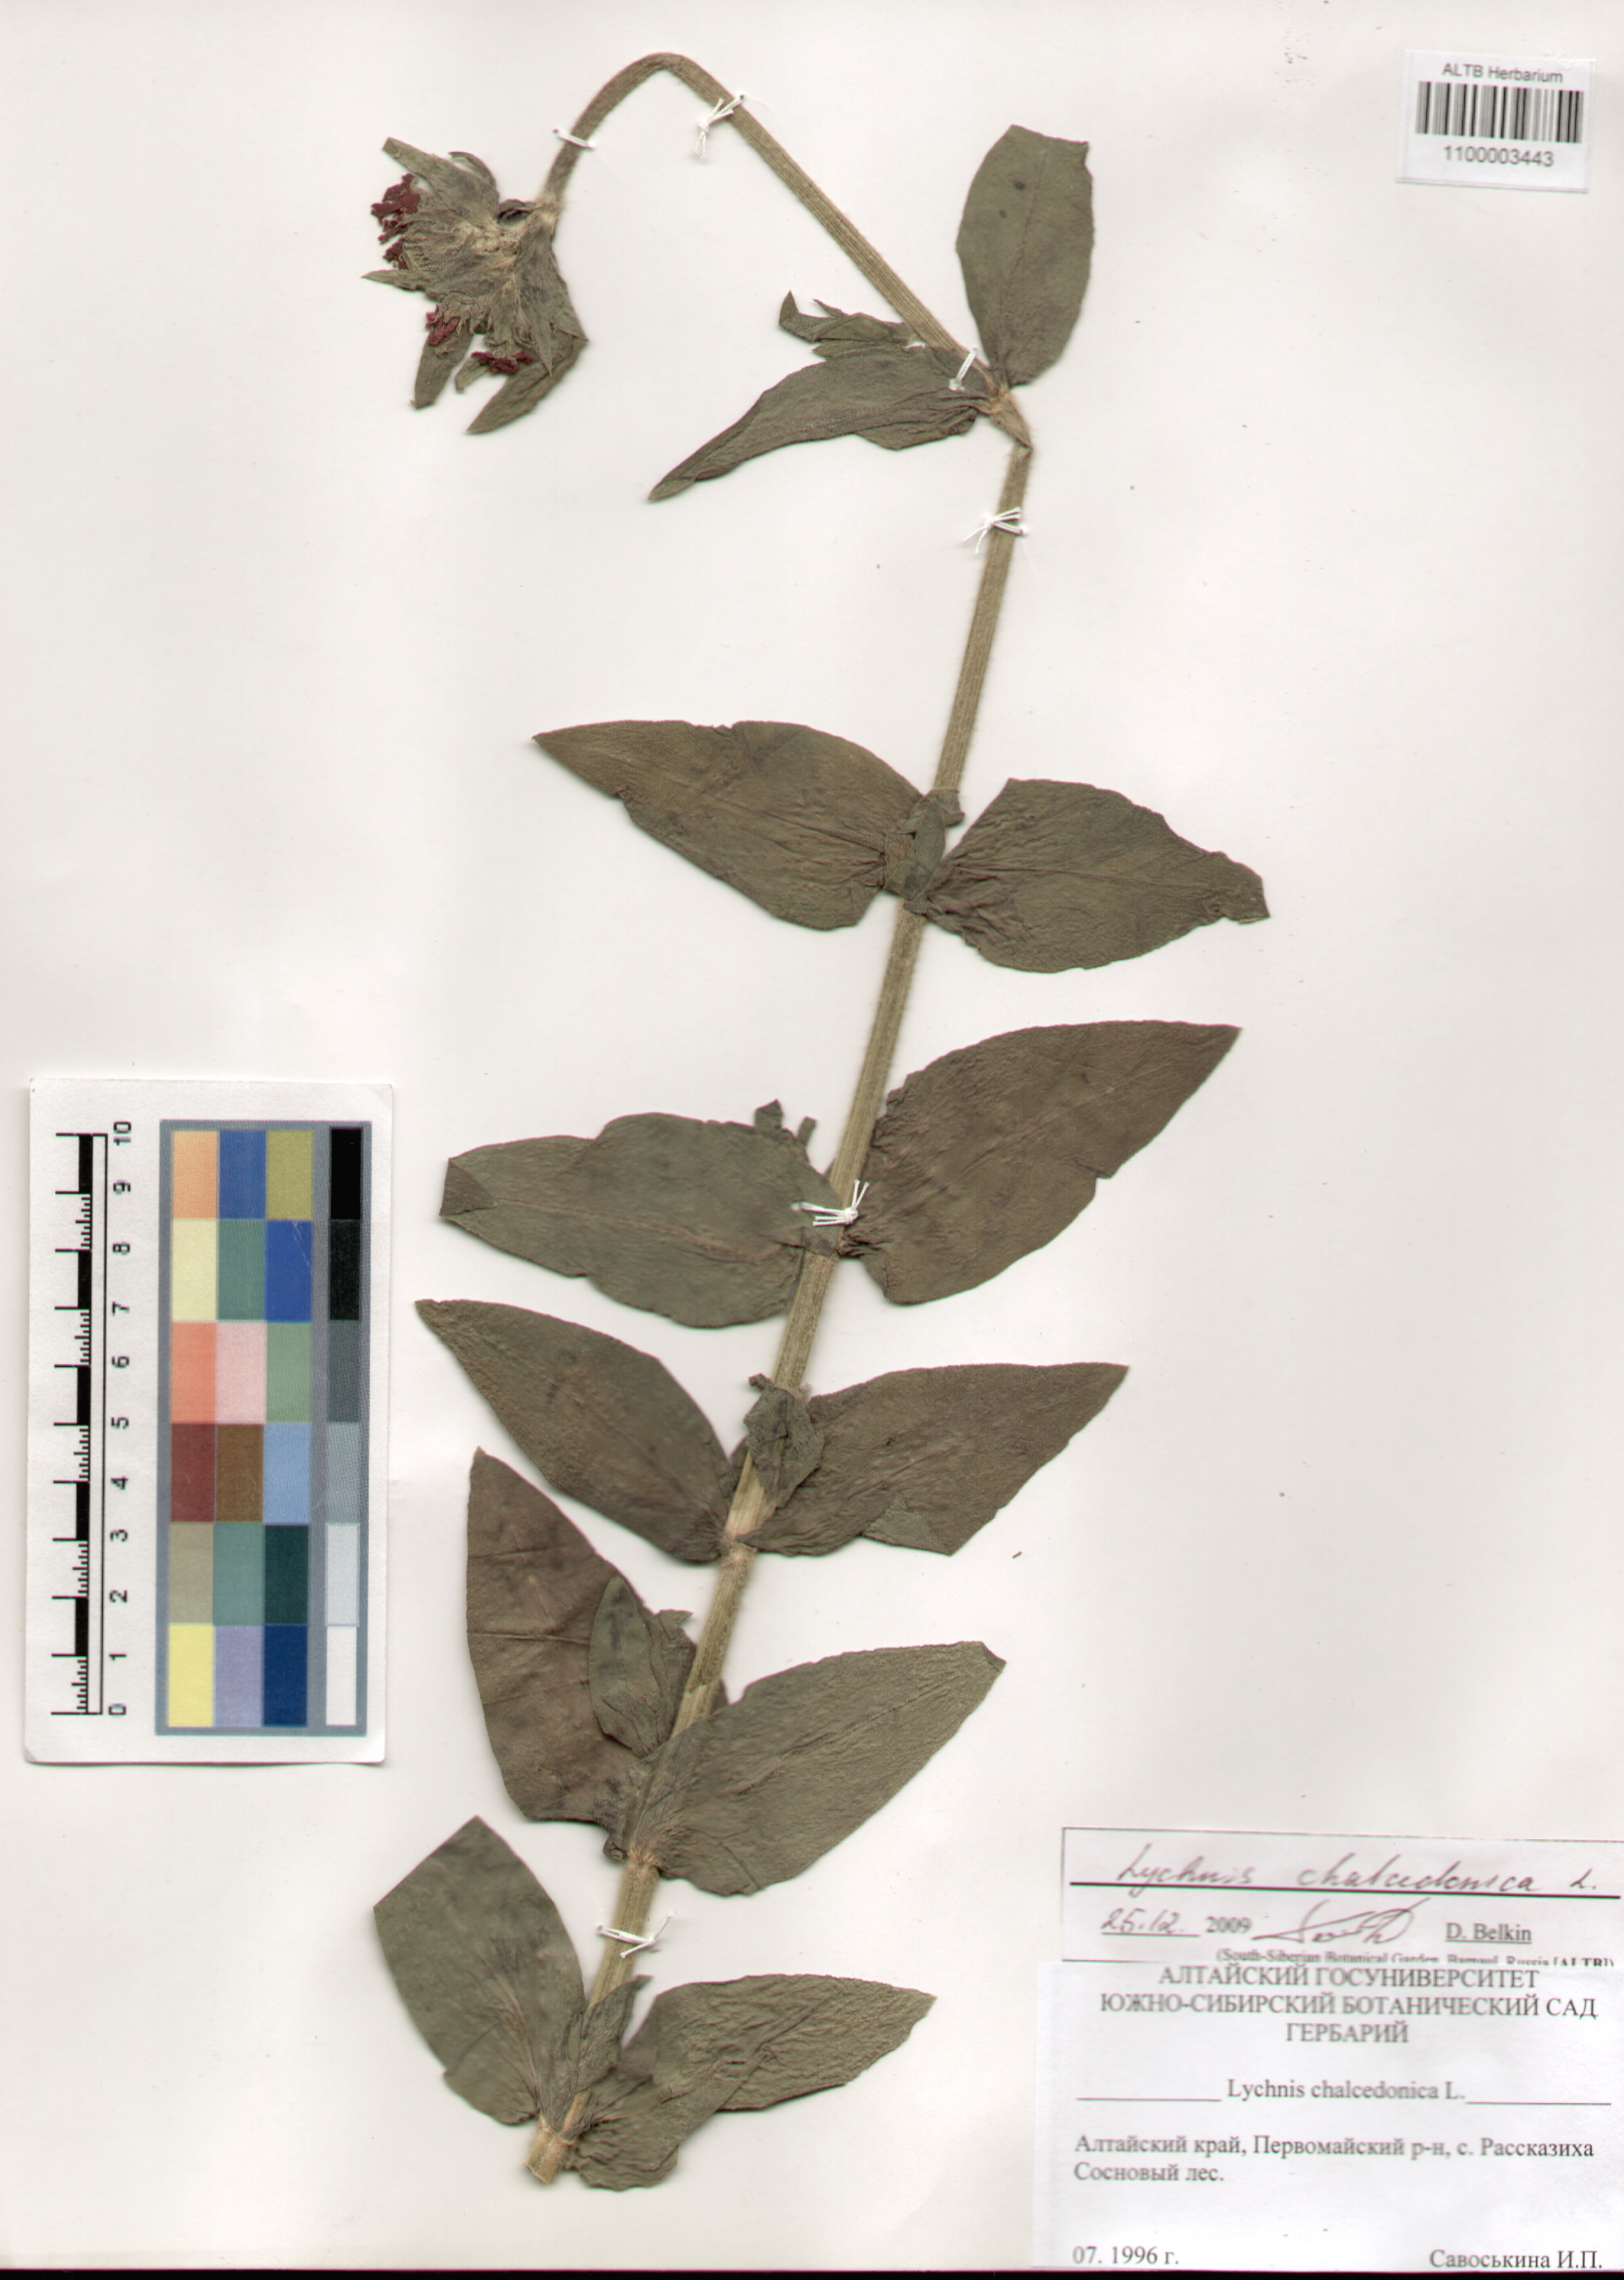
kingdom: Plantae
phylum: Tracheophyta
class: Magnoliopsida
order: Caryophyllales
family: Caryophyllaceae
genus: Silene
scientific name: Silene chalcedonica
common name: Maltese-cross
